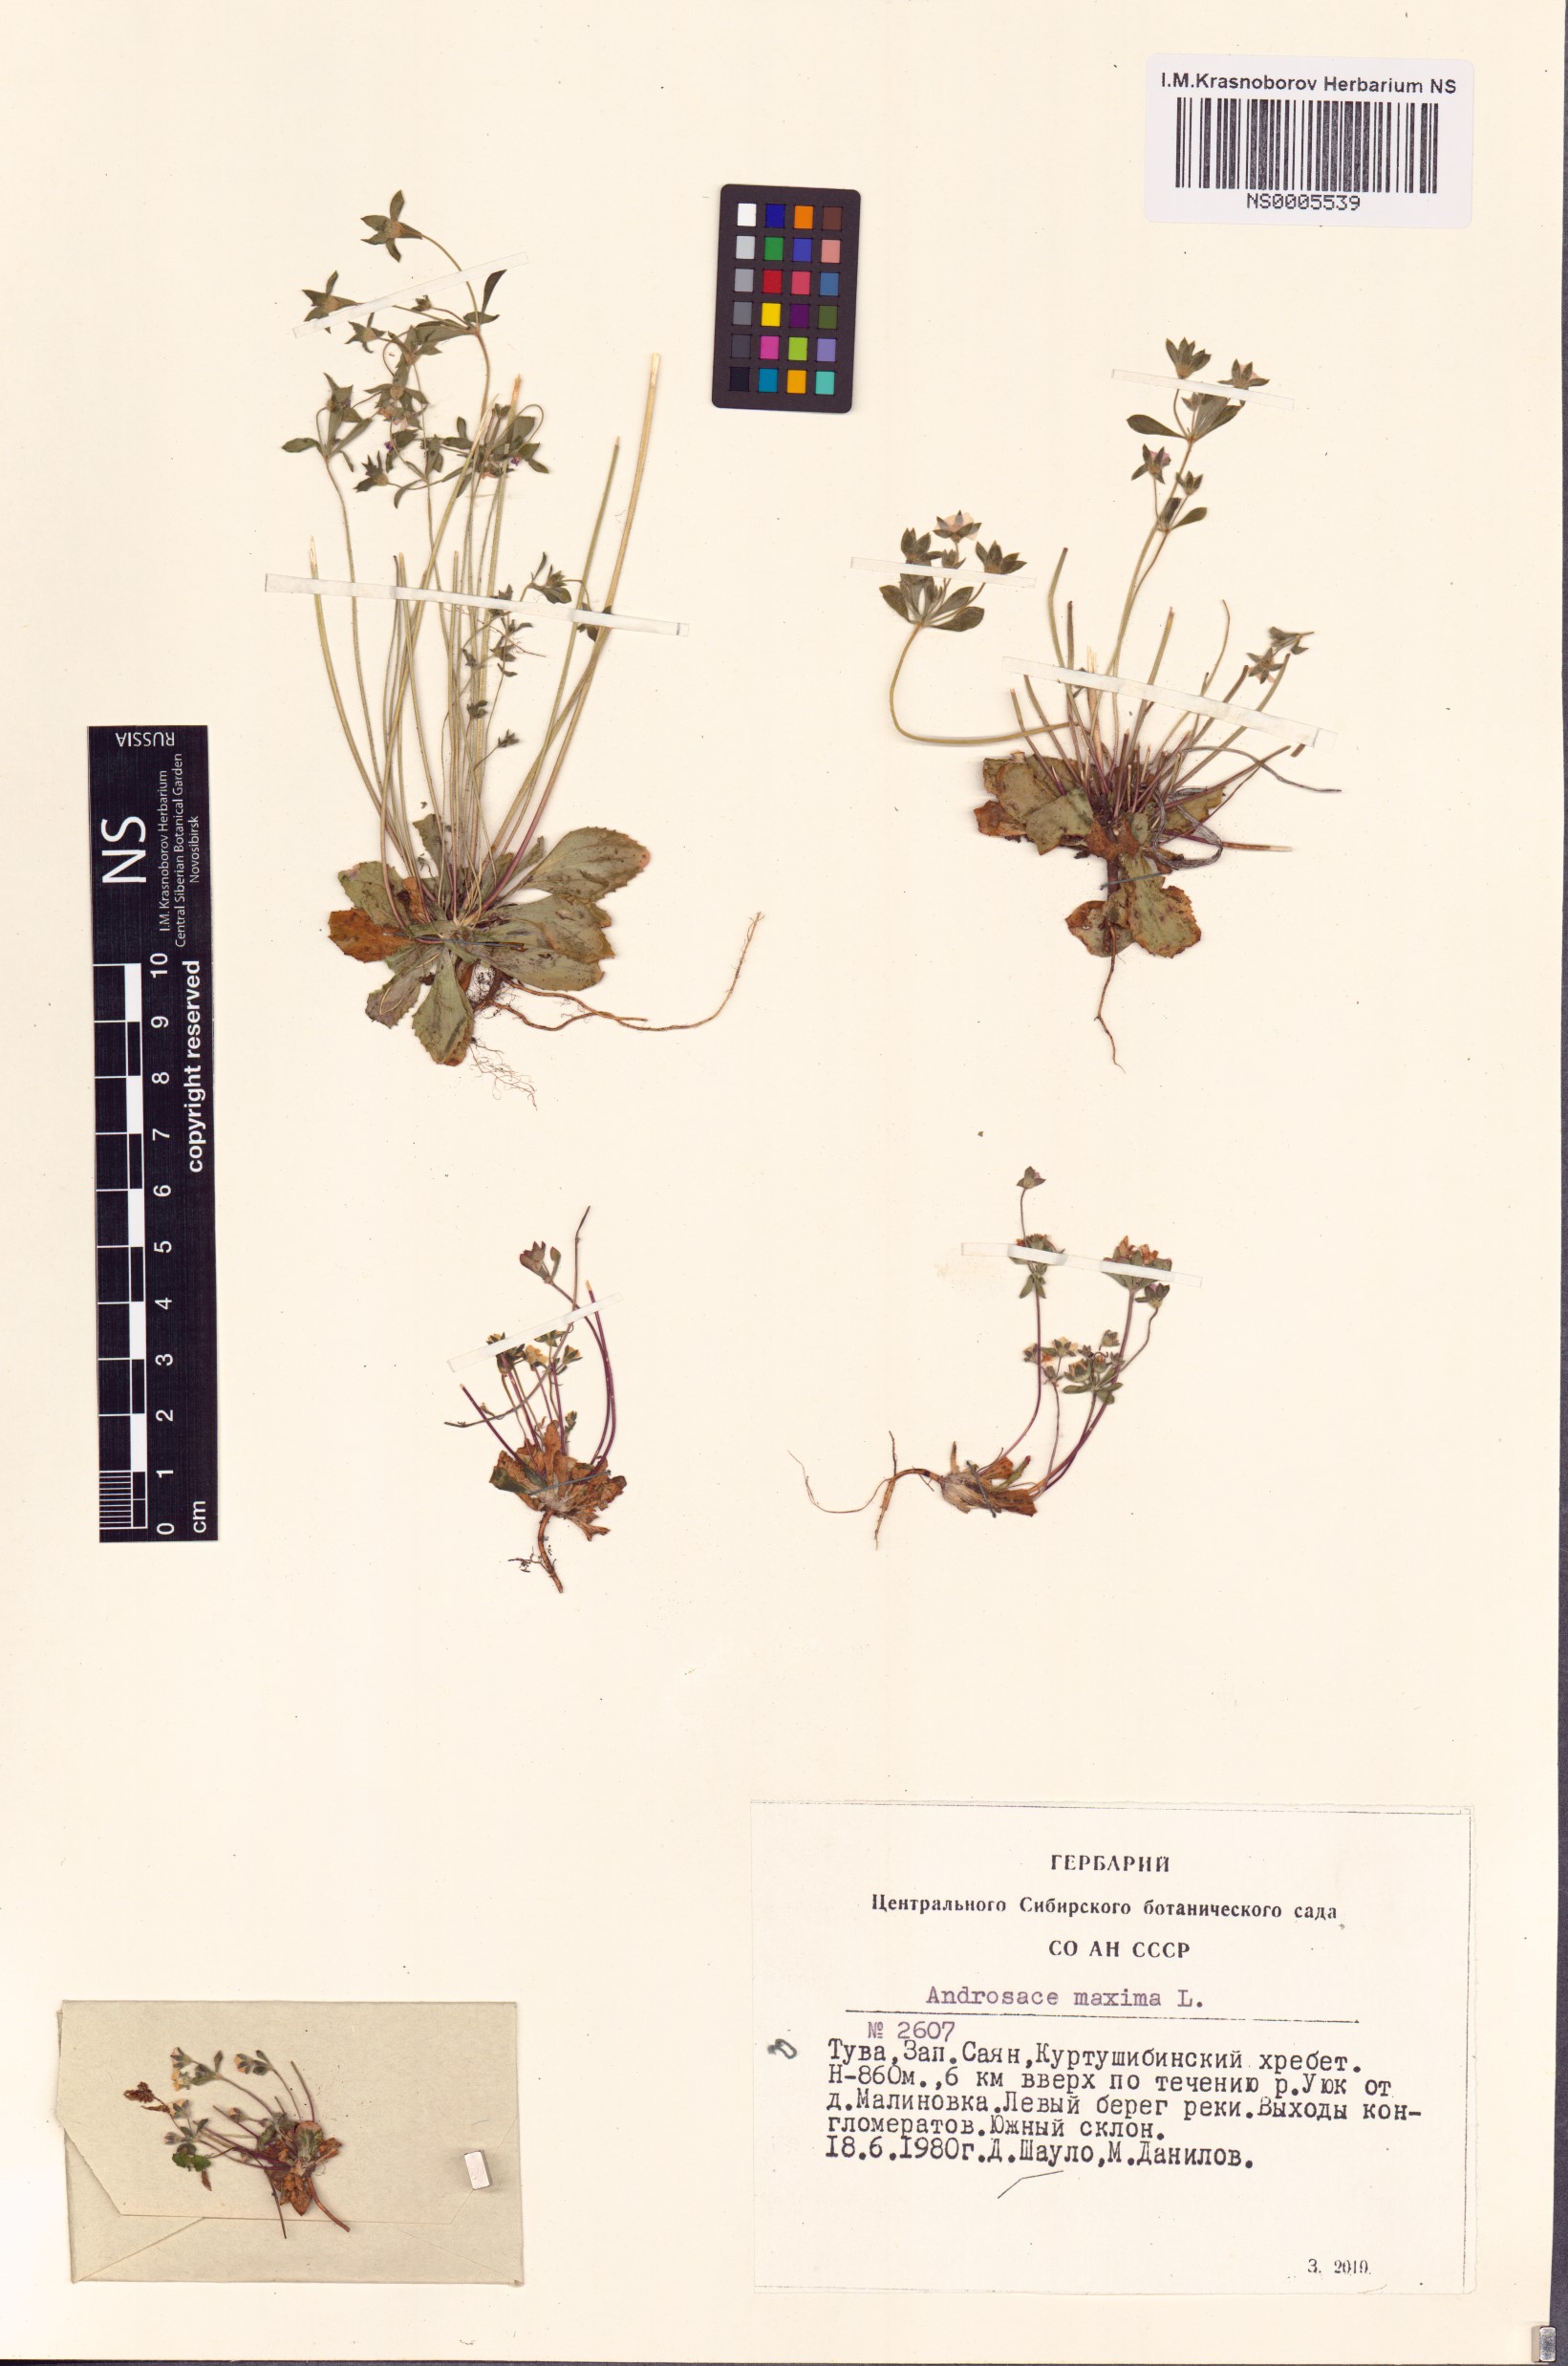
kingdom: Plantae
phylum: Tracheophyta
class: Magnoliopsida
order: Ericales
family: Primulaceae
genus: Androsace
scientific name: Androsace maxima
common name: Annual androsace
